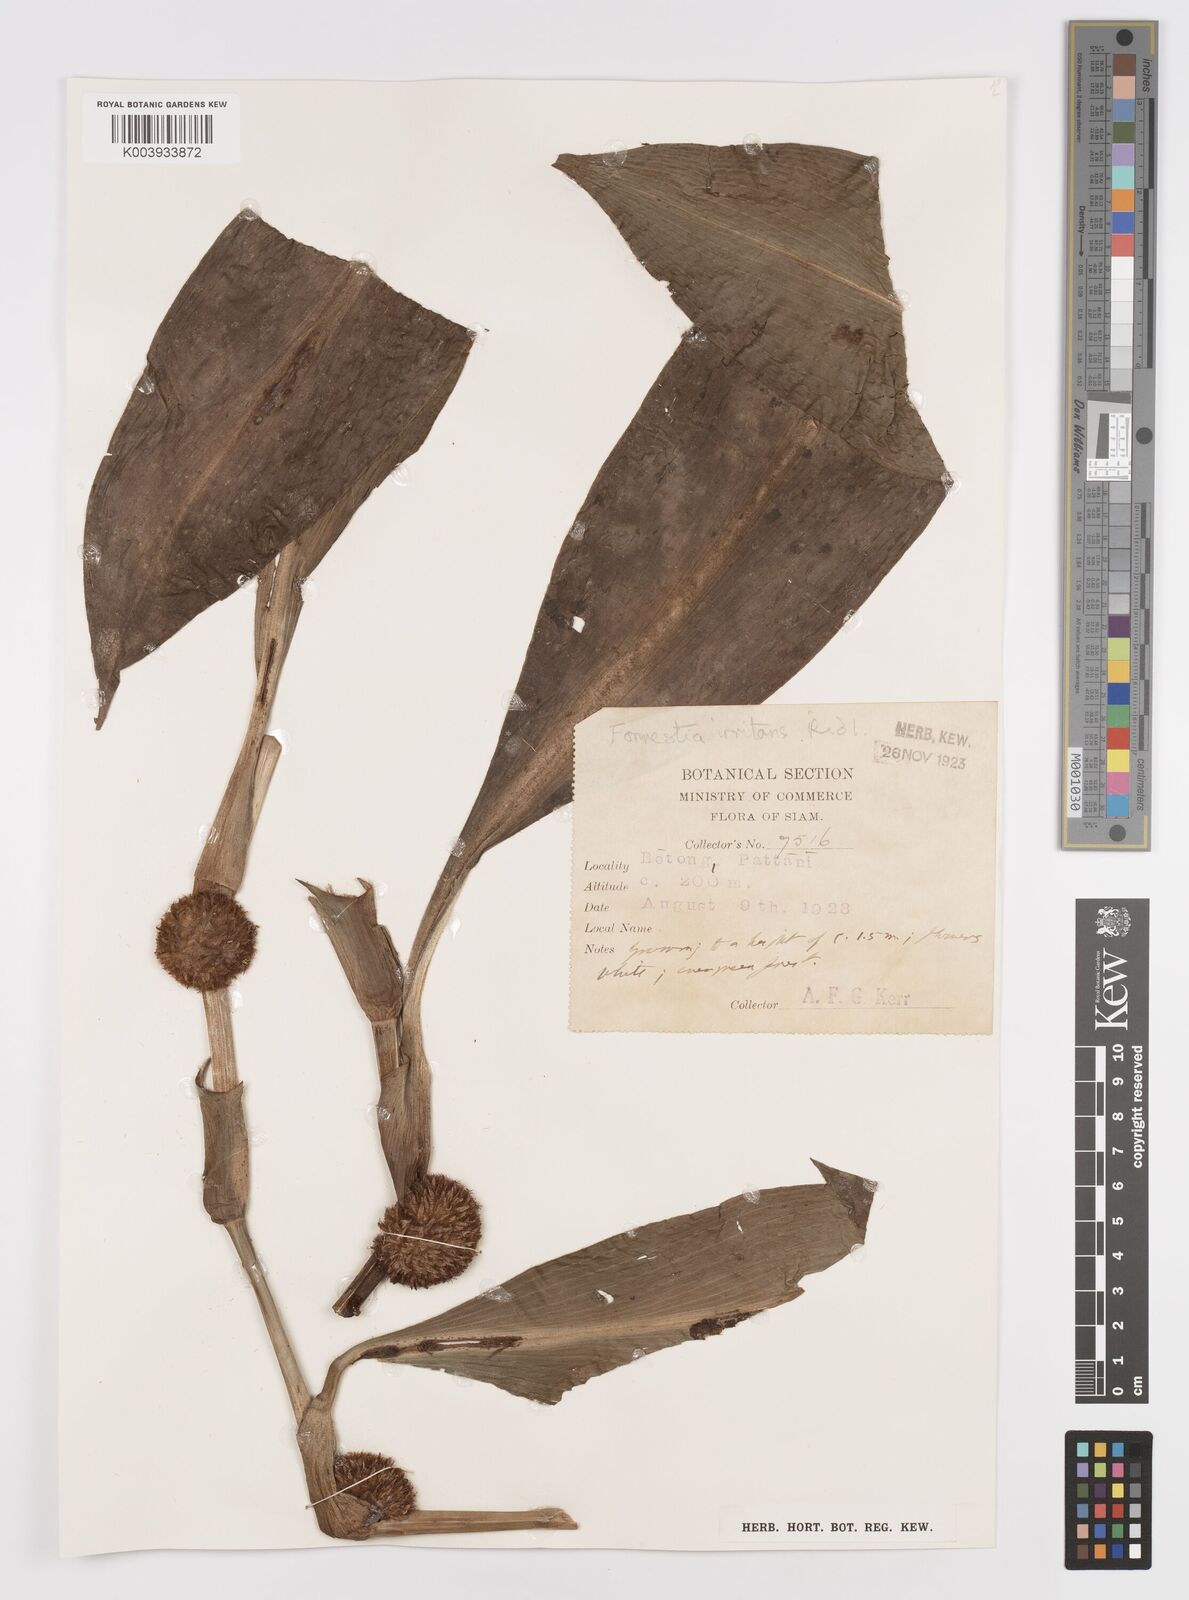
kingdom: Plantae
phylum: Tracheophyta
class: Liliopsida
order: Commelinales
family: Commelinaceae
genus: Amischotolype
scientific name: Amischotolype irritans
